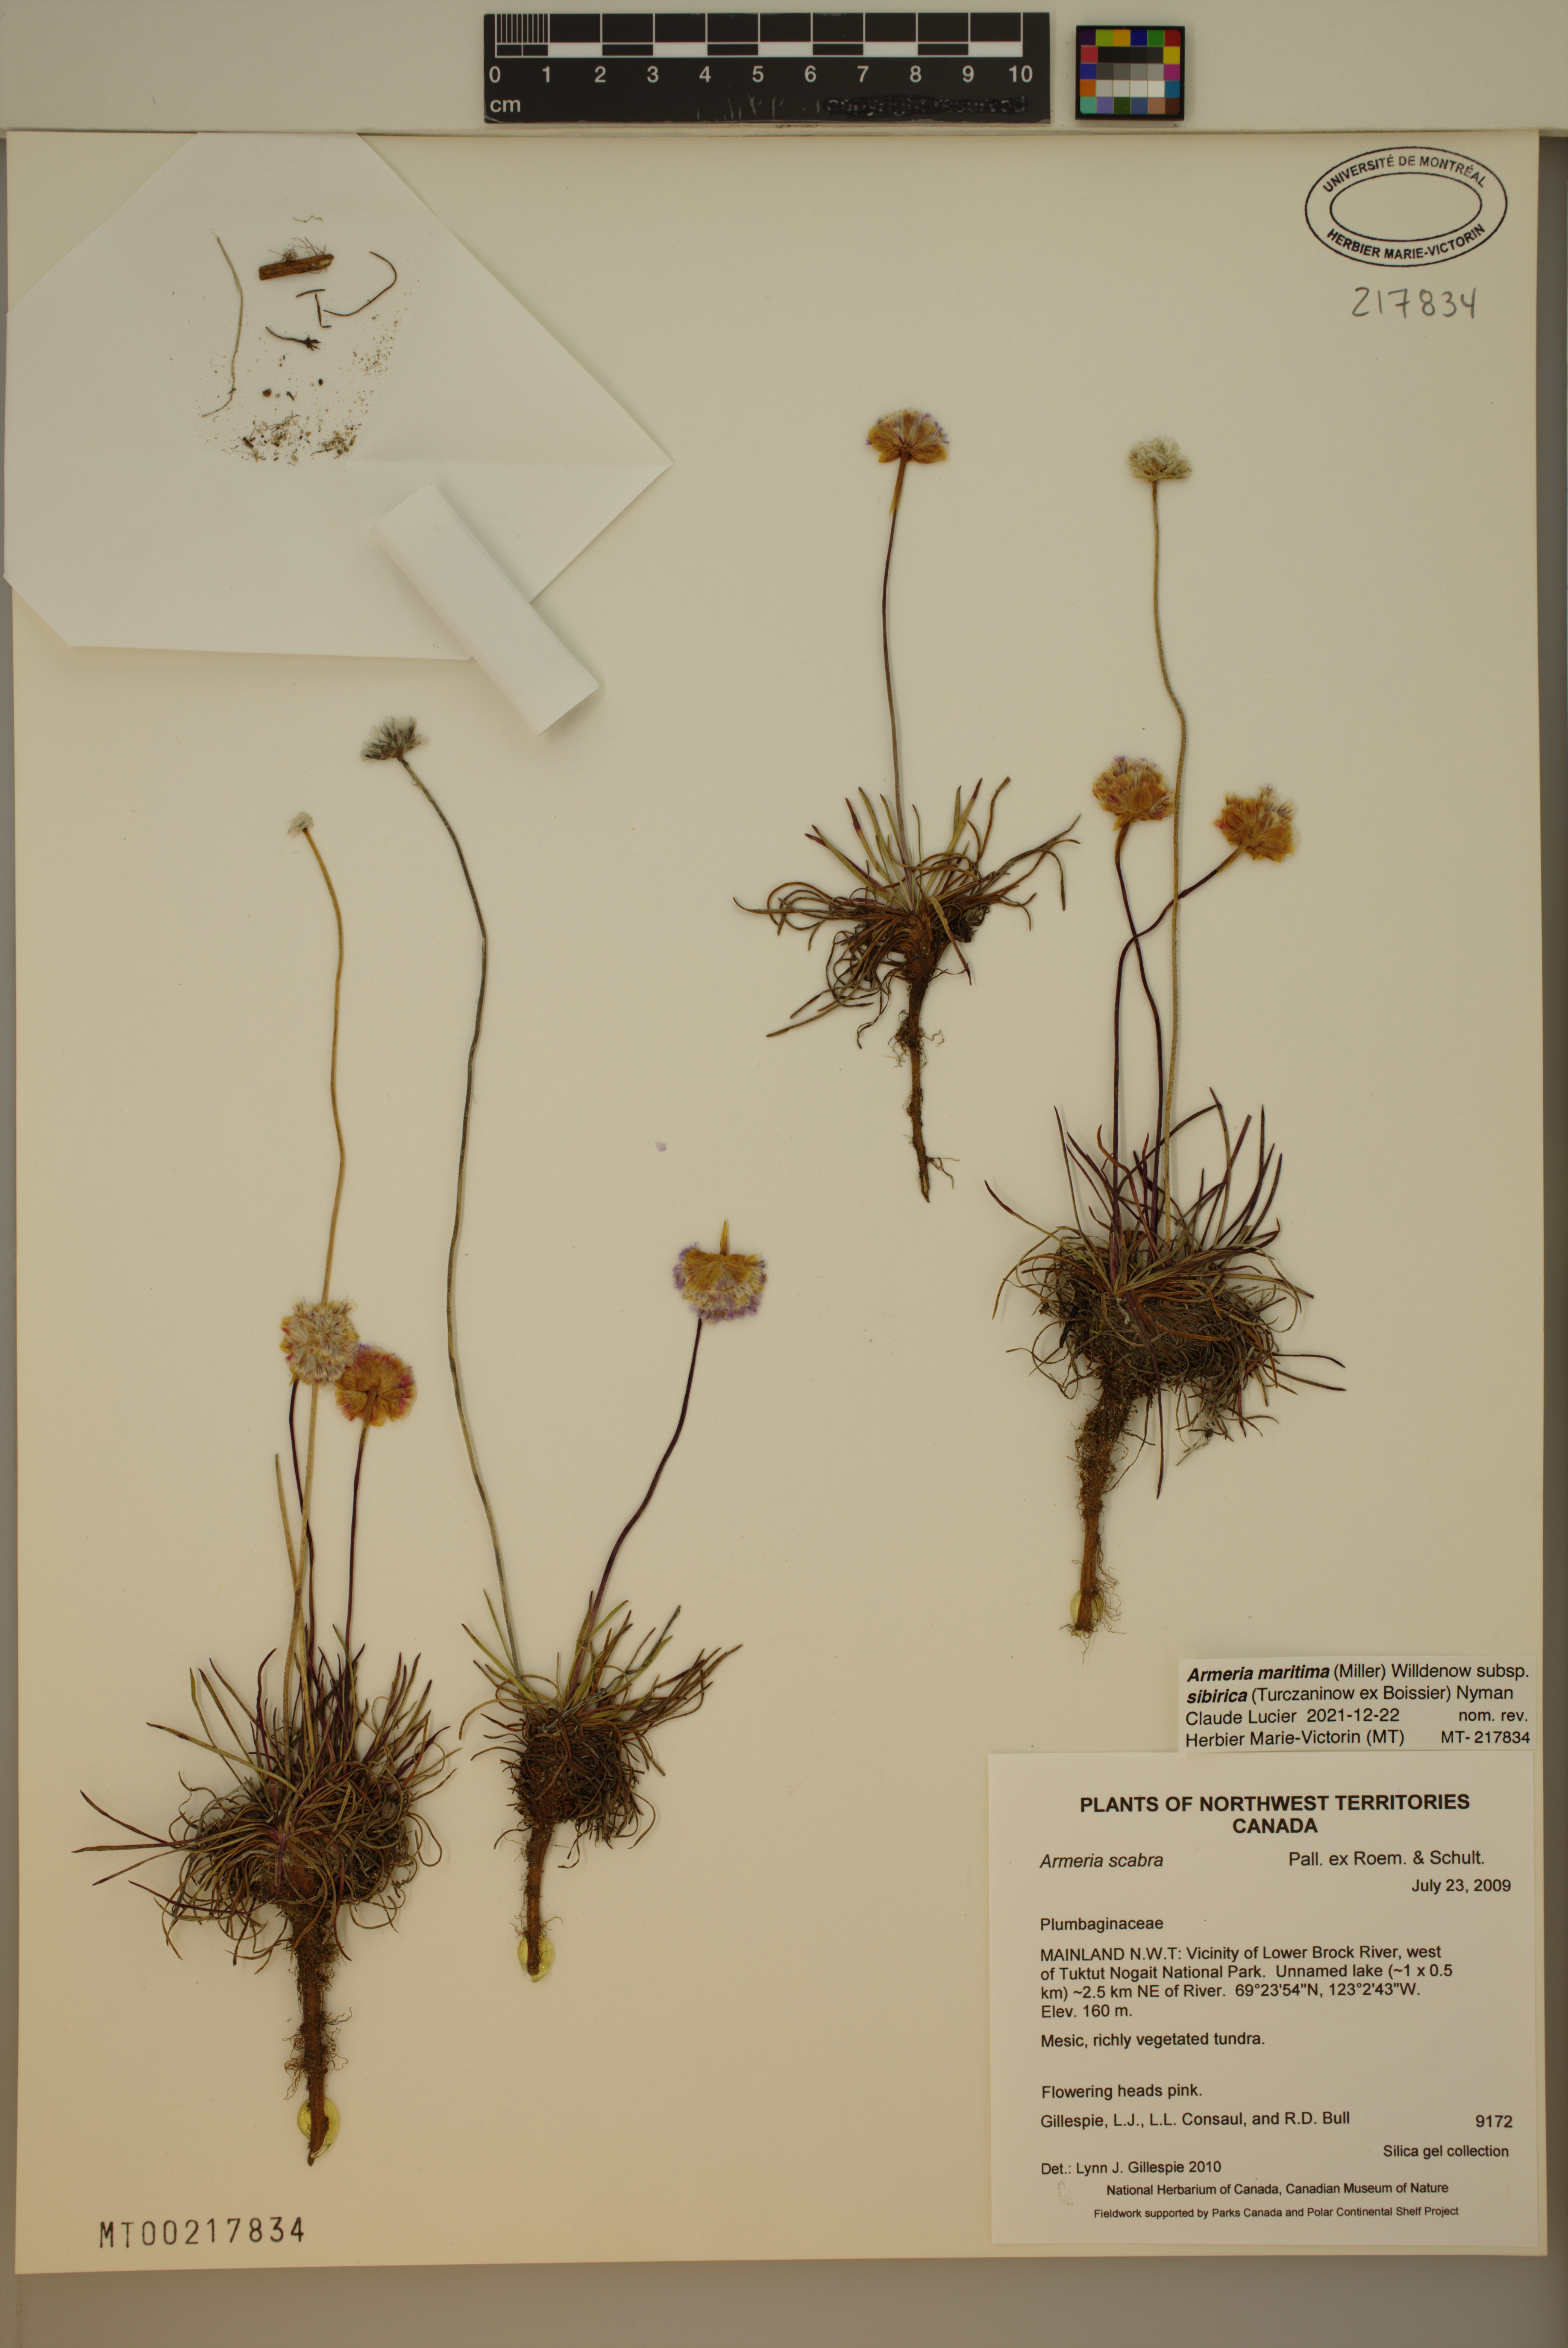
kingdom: Plantae
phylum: Tracheophyta
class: Magnoliopsida
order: Caryophyllales
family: Plumbaginaceae
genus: Armeria
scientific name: Armeria maritima
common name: Thrift
